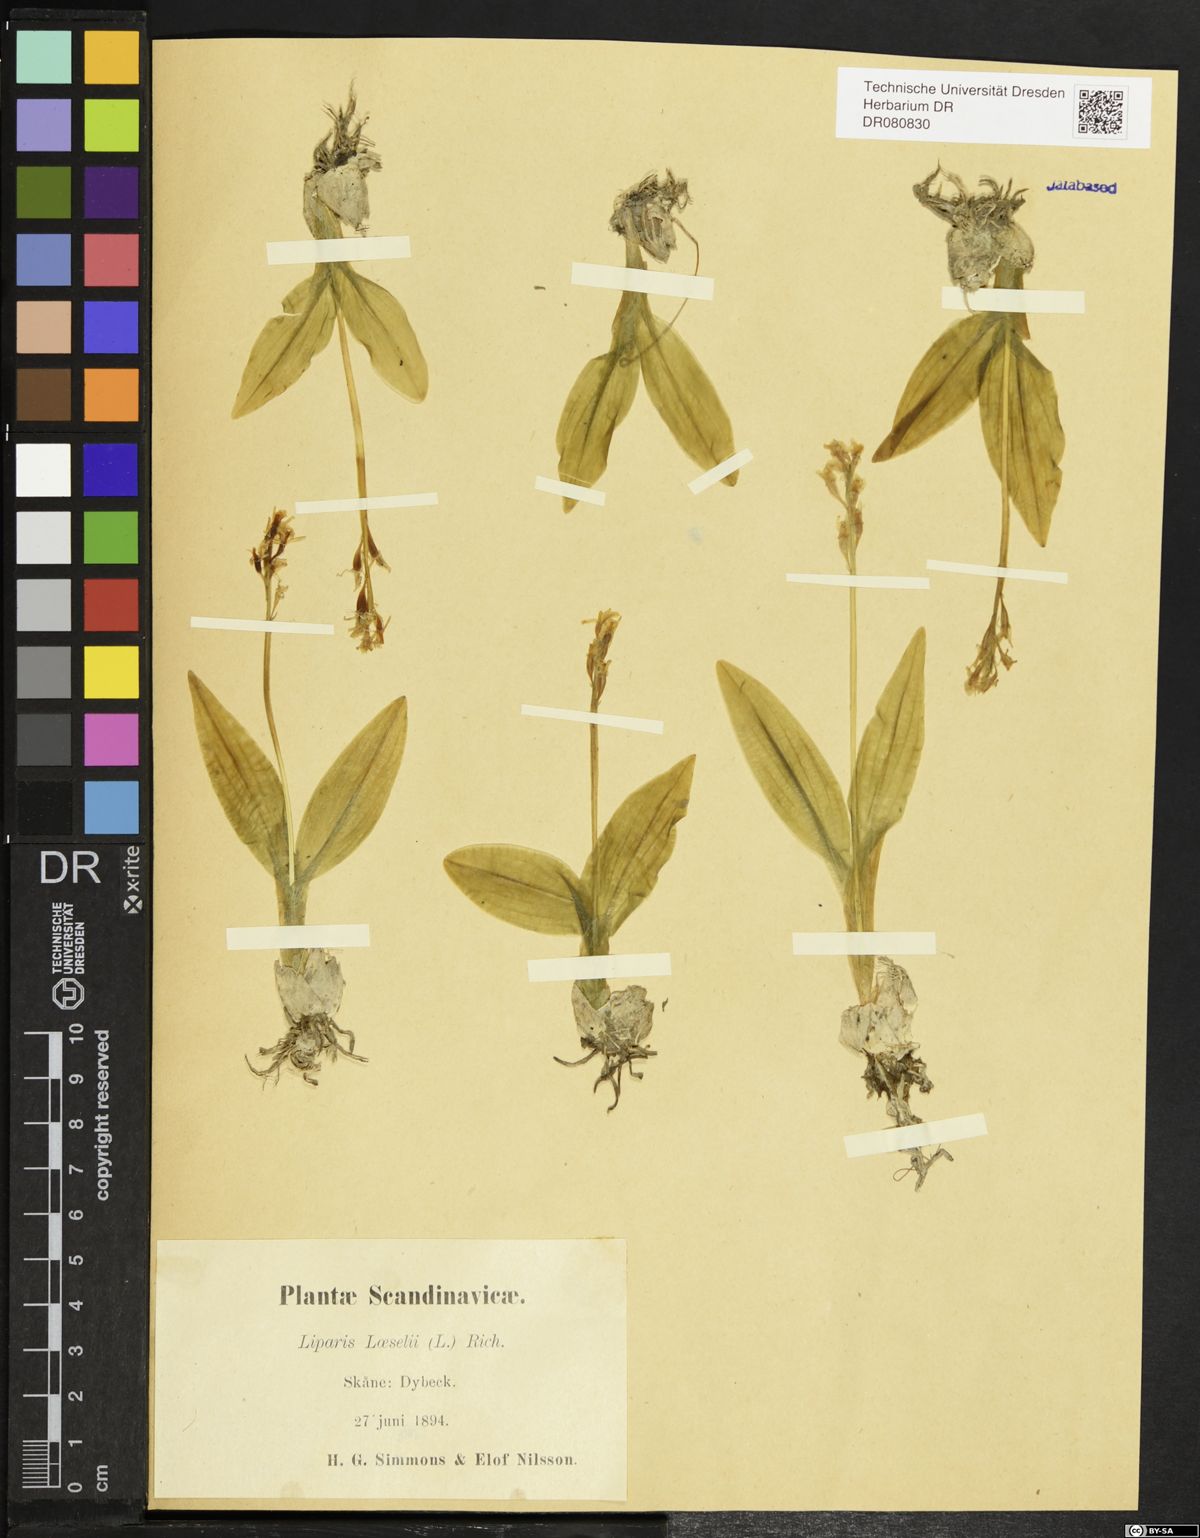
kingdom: Animalia
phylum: Arthropoda
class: Insecta
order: Coleoptera
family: Curculionidae
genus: Liparis
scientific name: Liparis loeselii
